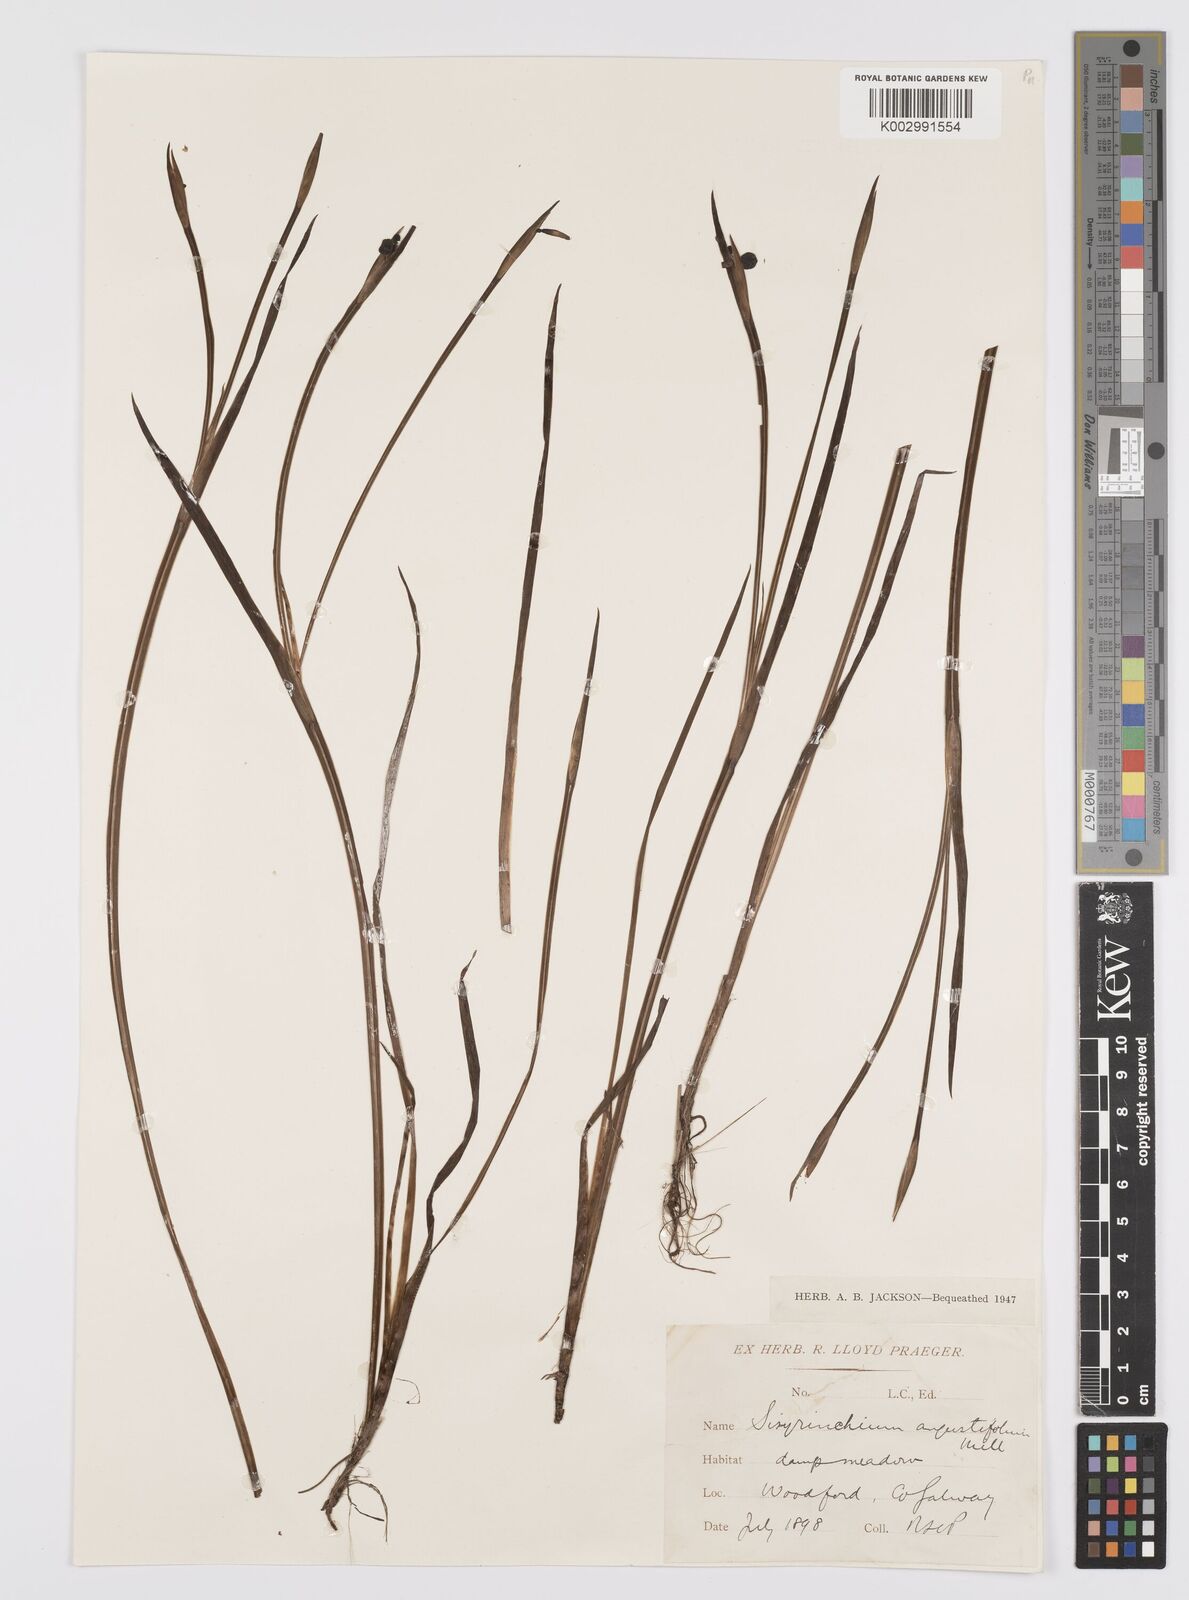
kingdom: Plantae
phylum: Tracheophyta
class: Liliopsida
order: Asparagales
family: Iridaceae
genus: Sisyrinchium
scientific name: Sisyrinchium angustifolium
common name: Narrow-leaf blue-eyed-grass
